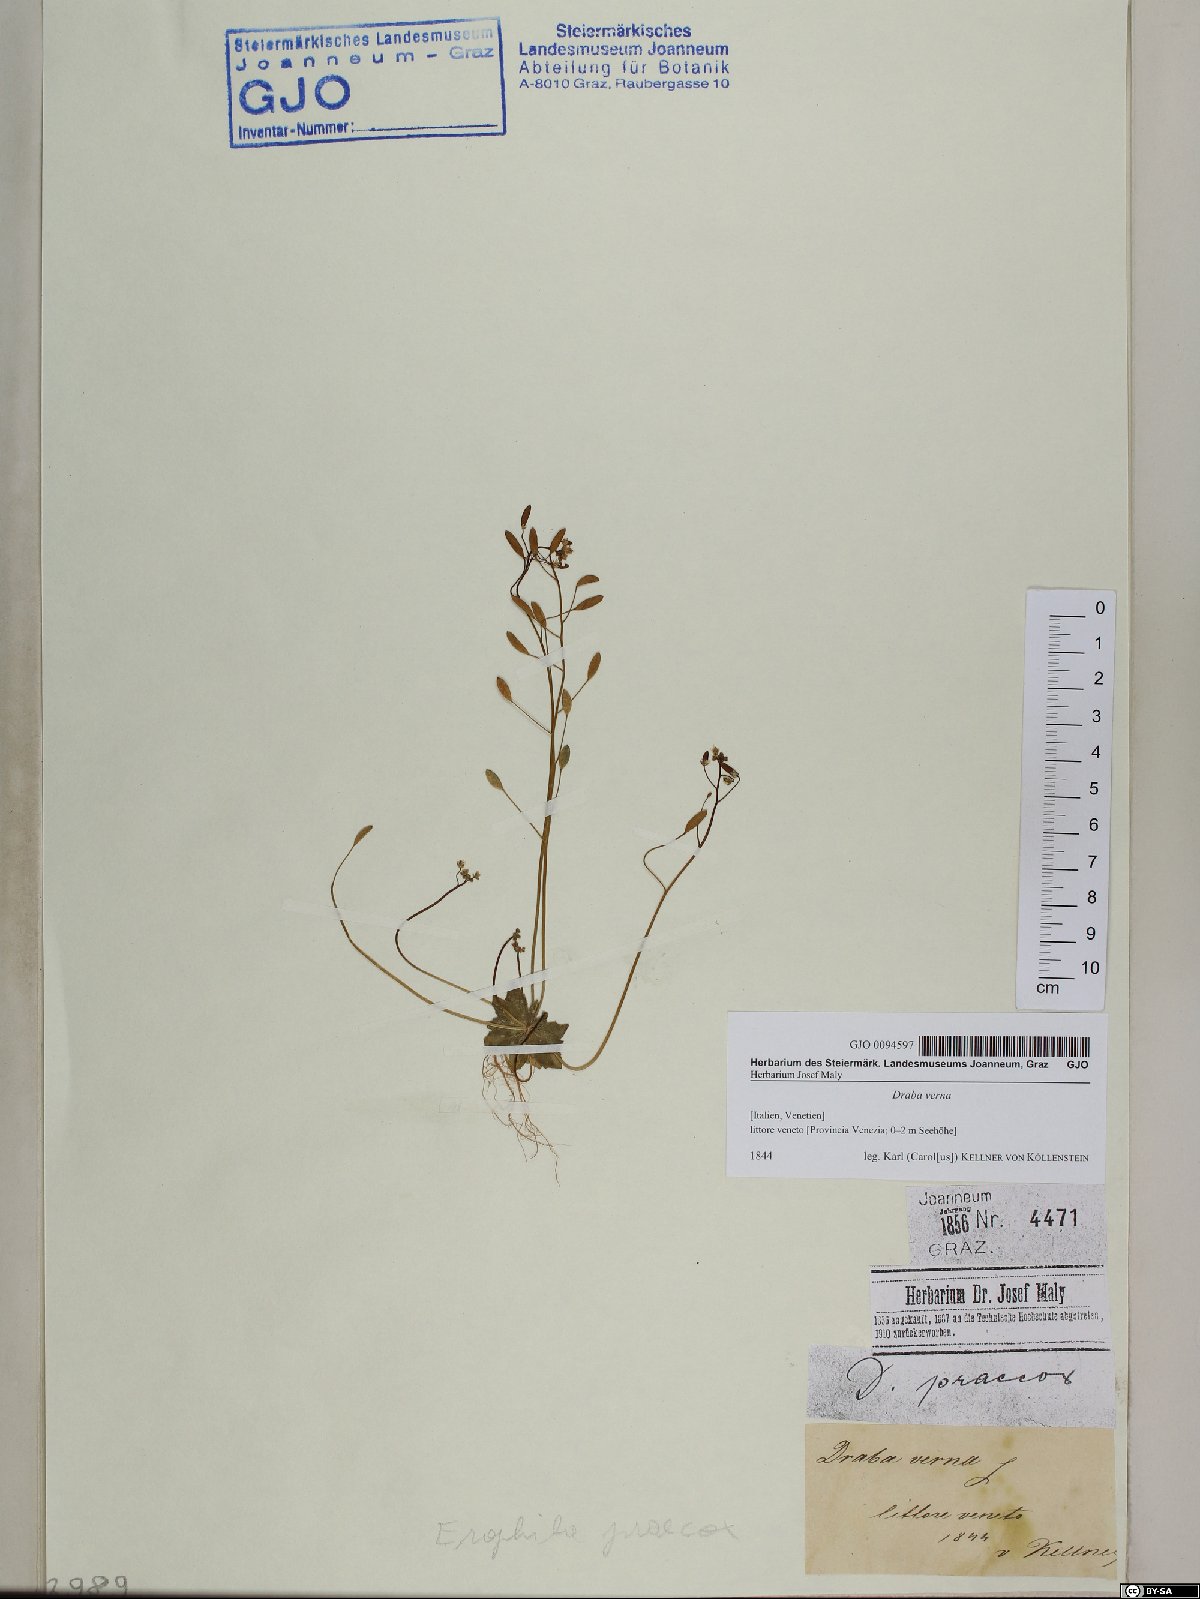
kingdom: Plantae
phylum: Tracheophyta
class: Magnoliopsida
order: Brassicales
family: Brassicaceae
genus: Draba
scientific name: Draba verna
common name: Spring draba
